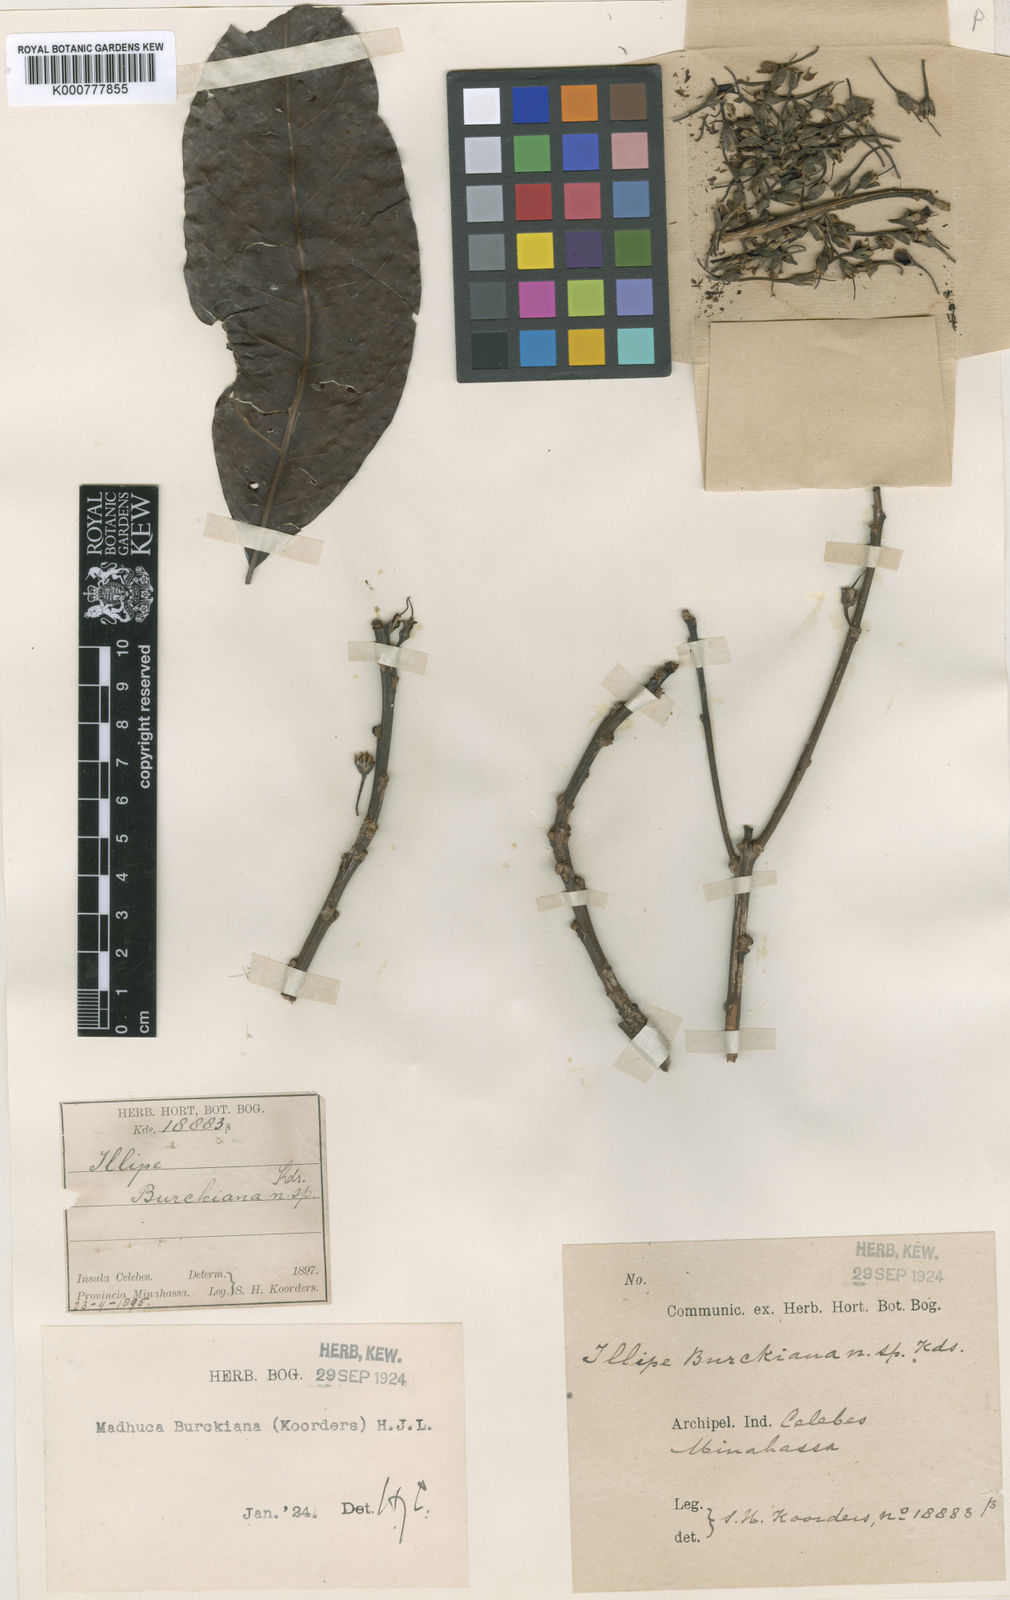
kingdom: Plantae
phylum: Tracheophyta
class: Magnoliopsida
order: Ericales
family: Sapotaceae
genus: Madhuca
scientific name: Madhuca burckiana
